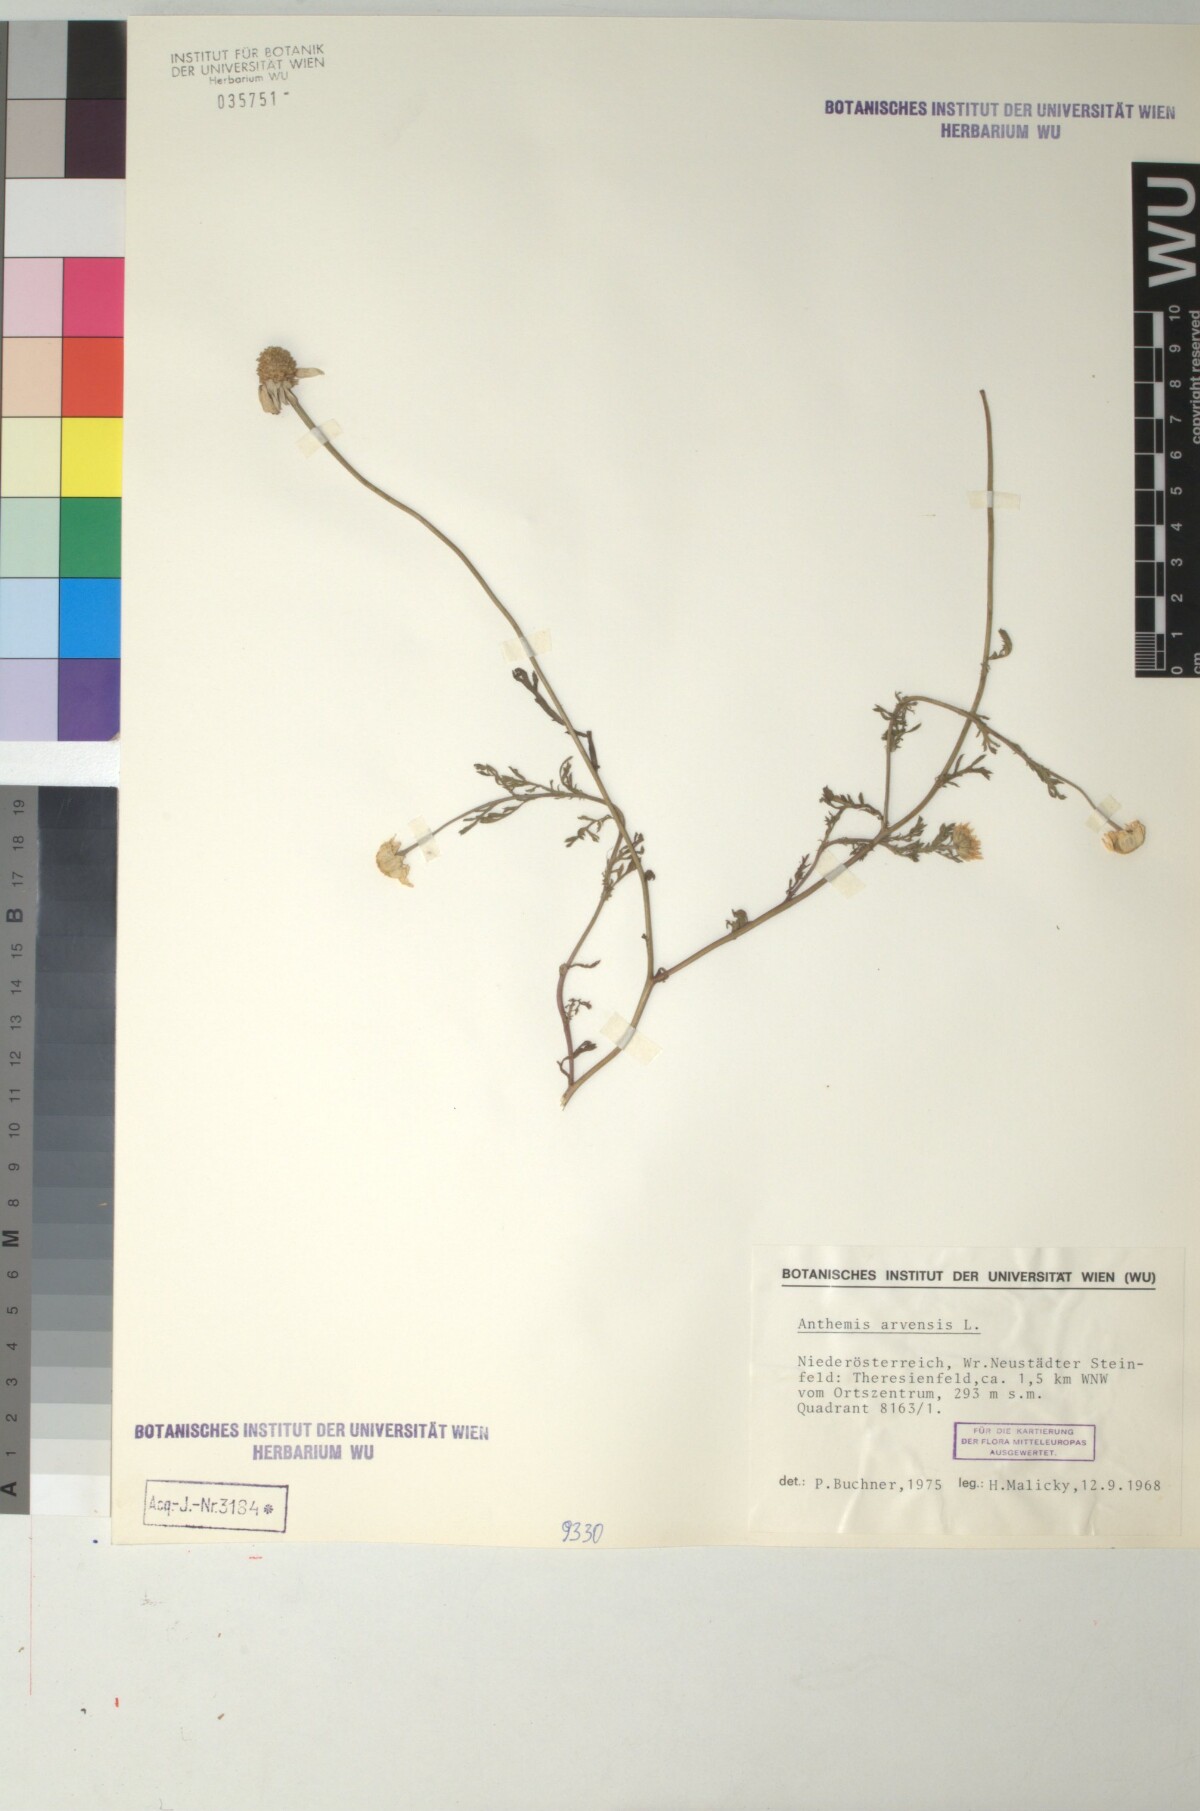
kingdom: Plantae
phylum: Tracheophyta
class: Magnoliopsida
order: Asterales
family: Asteraceae
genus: Anthemis
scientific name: Anthemis arvensis
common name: Corn chamomile
